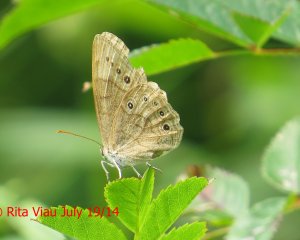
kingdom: Animalia
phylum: Arthropoda
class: Insecta
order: Lepidoptera
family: Nymphalidae
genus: Lethe
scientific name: Lethe eurydice
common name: Eyed Brown
